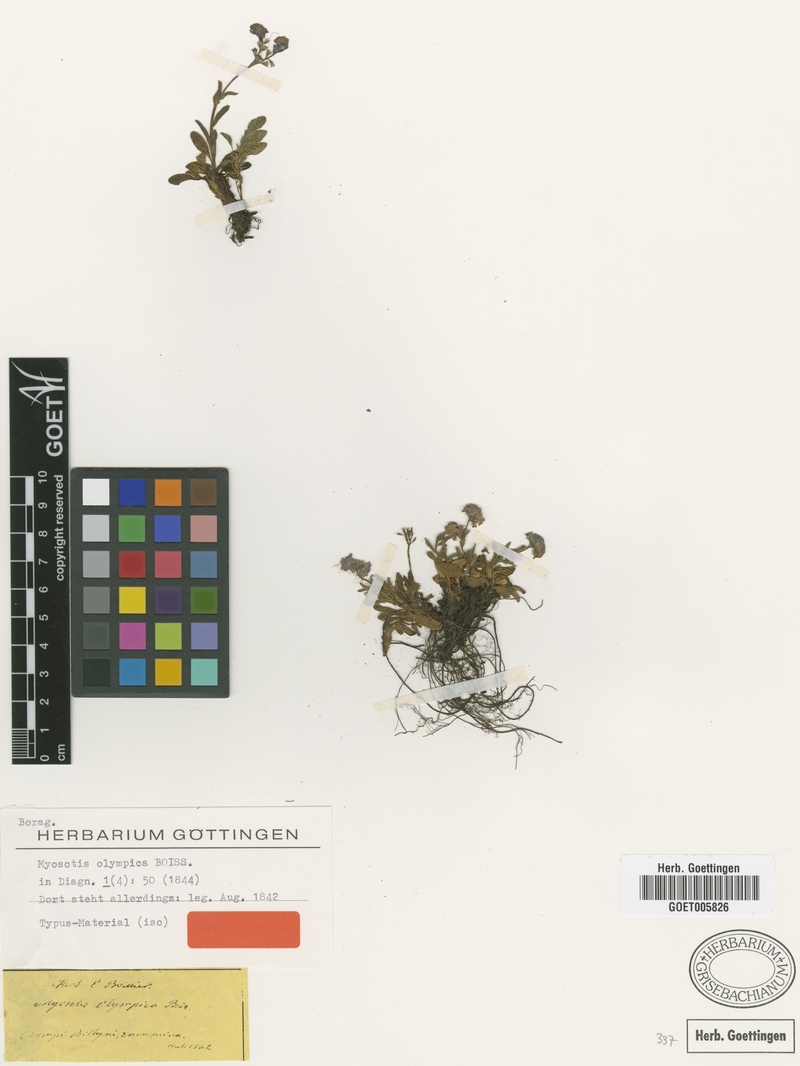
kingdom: Plantae
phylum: Tracheophyta
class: Magnoliopsida
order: Boraginales
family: Boraginaceae
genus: Myosotis
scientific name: Myosotis olympica
